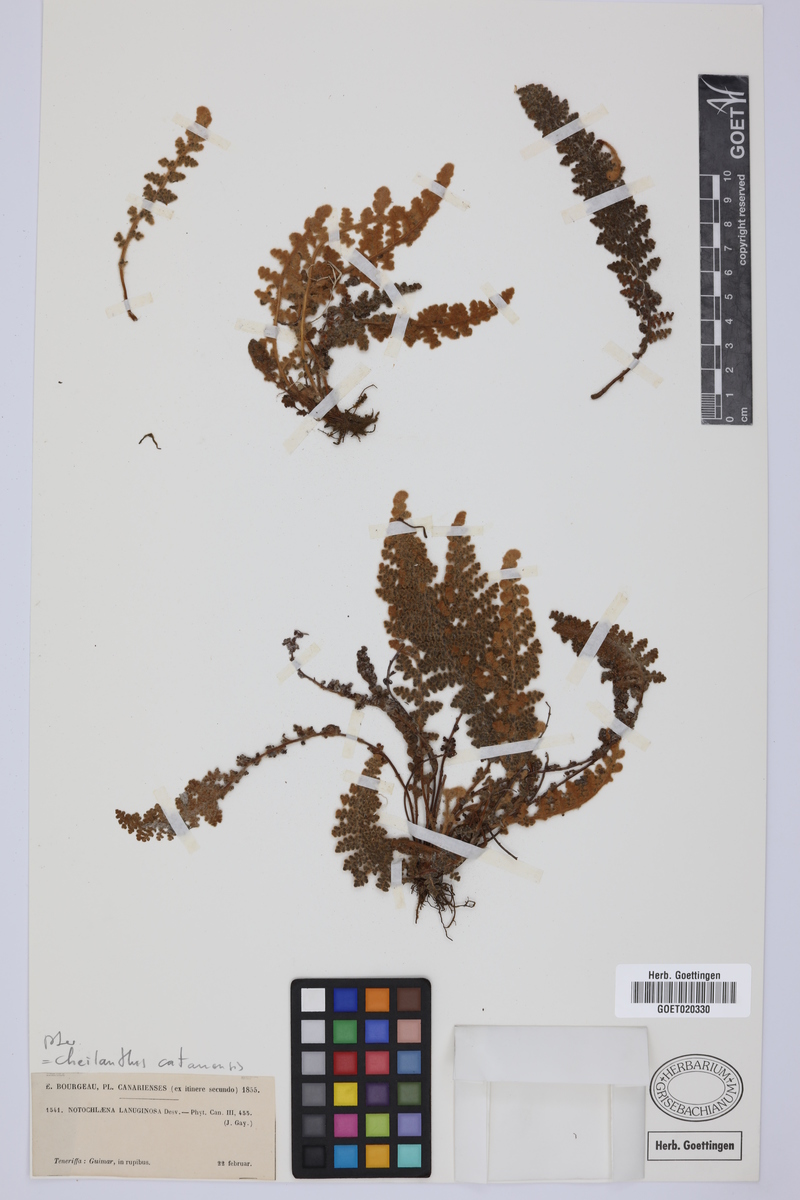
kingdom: Plantae
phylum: Tracheophyta
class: Polypodiopsida
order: Polypodiales
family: Pteridaceae
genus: Cosentinia
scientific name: Cosentinia vellea
